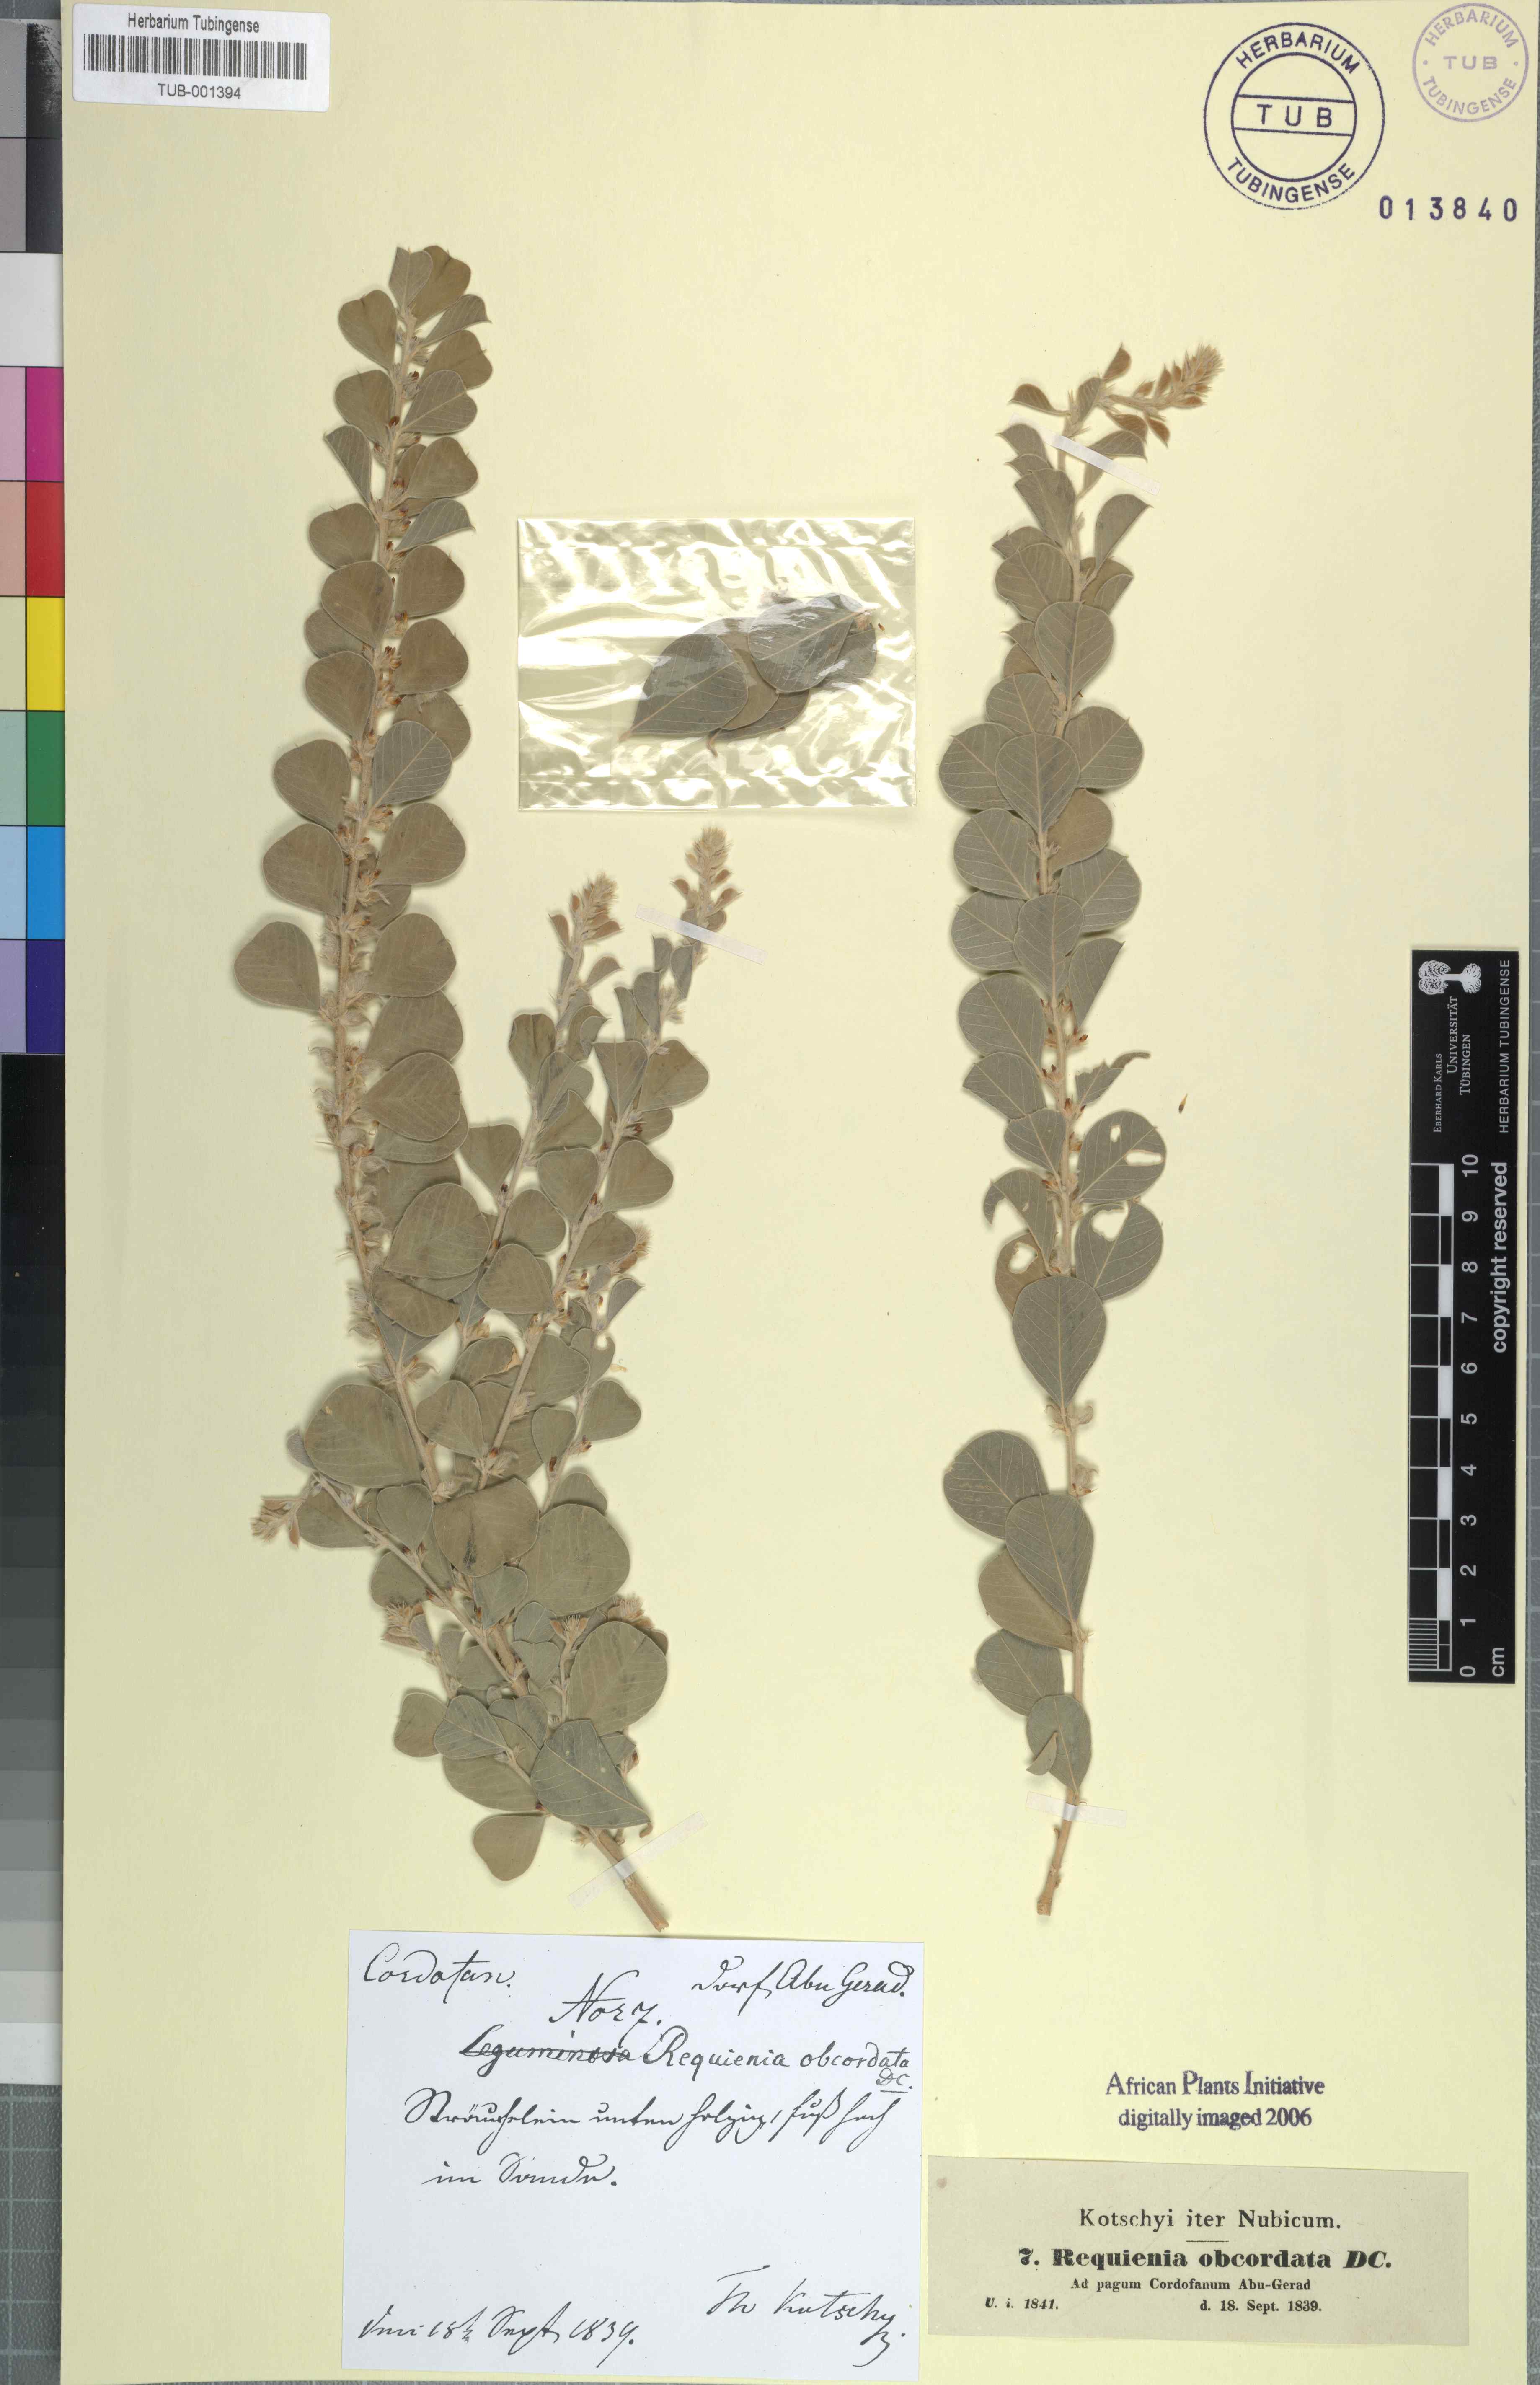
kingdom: Plantae
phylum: Tracheophyta
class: Magnoliopsida
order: Fabales
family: Fabaceae
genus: Tephrosia
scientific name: Tephrosia obcordata
